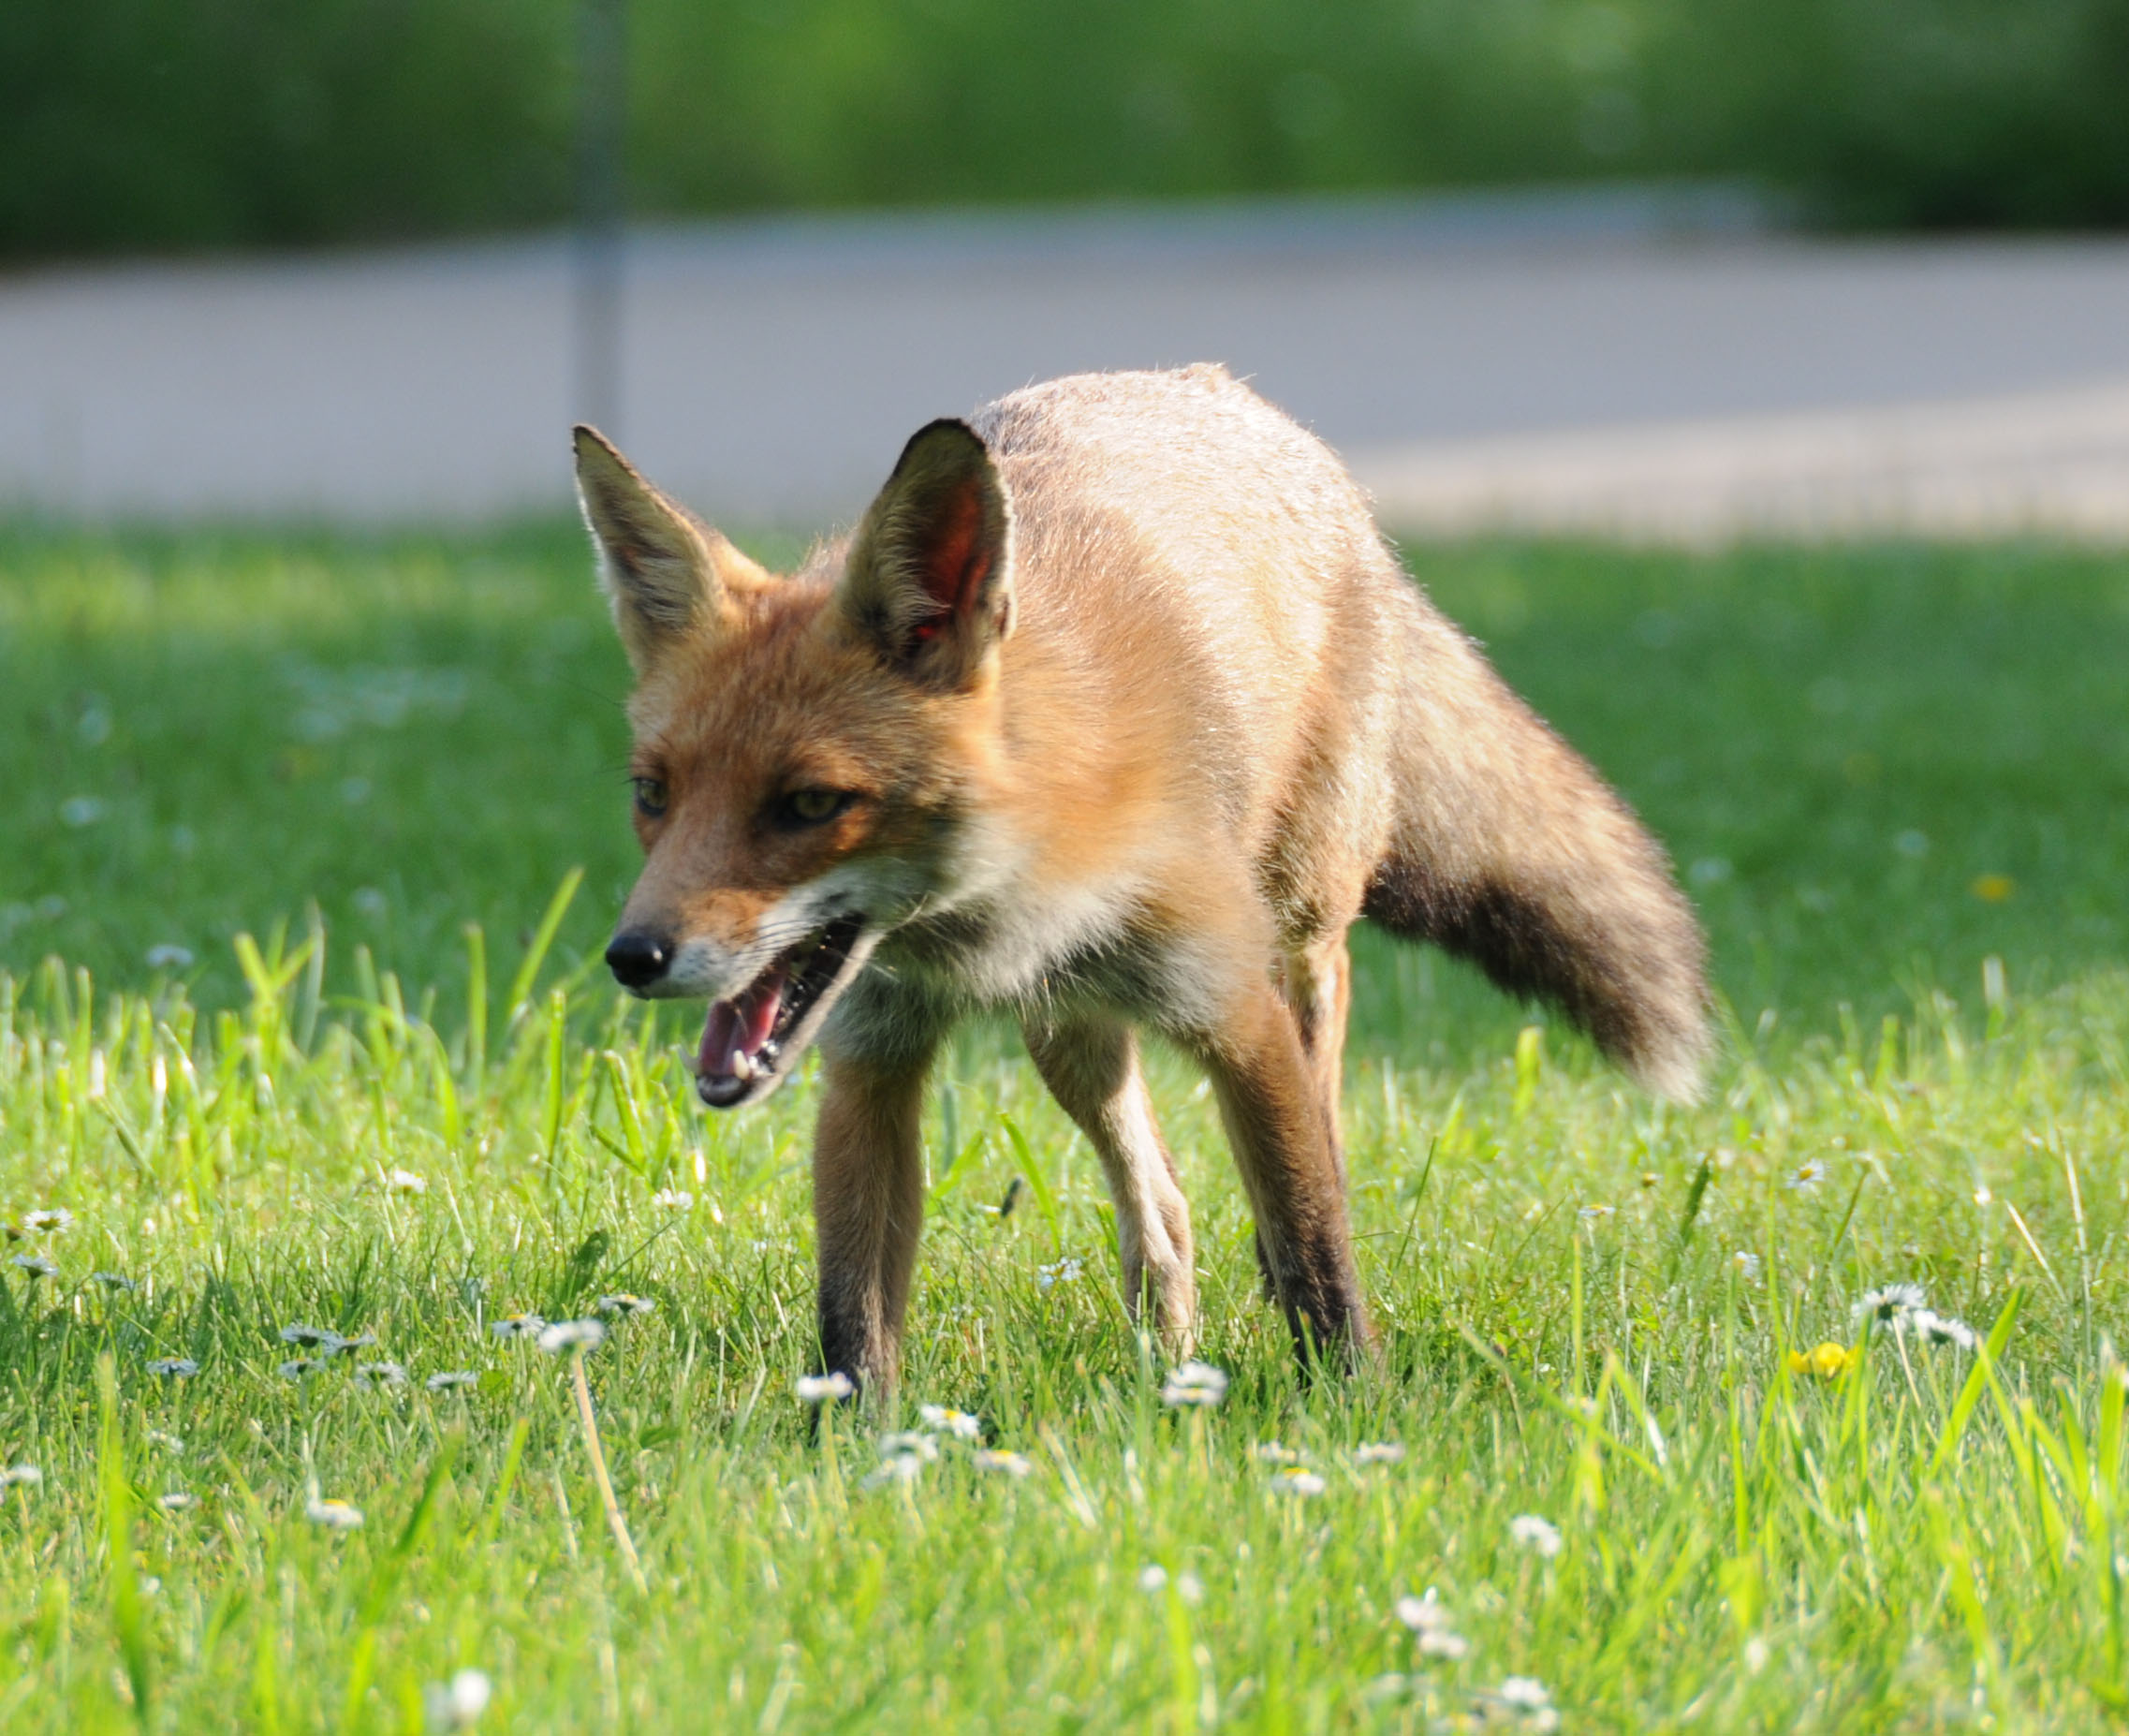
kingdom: Animalia
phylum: Chordata
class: Mammalia
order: Carnivora
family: Canidae
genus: Vulpes
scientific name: Vulpes vulpes
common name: Red fox
